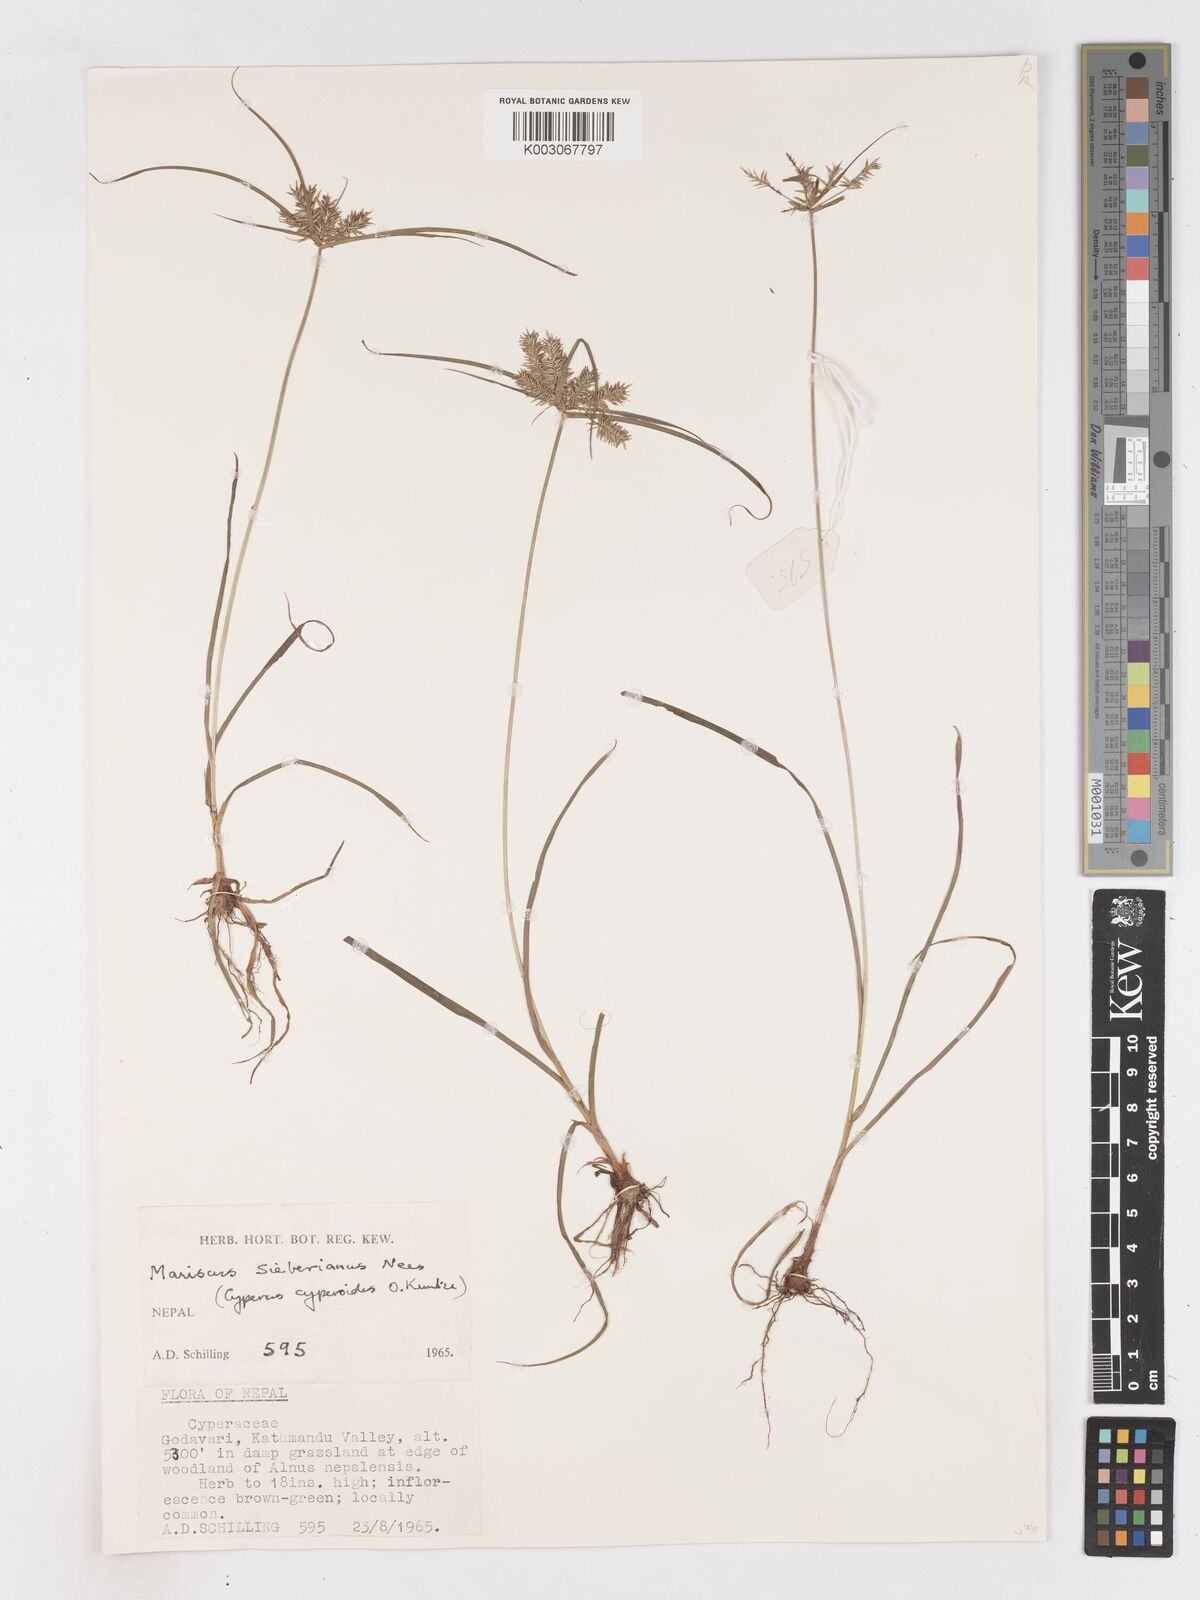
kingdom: Plantae
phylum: Tracheophyta
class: Liliopsida
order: Poales
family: Cyperaceae
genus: Cyperus
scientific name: Cyperus cyperoides
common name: Pacific island flat sedge
